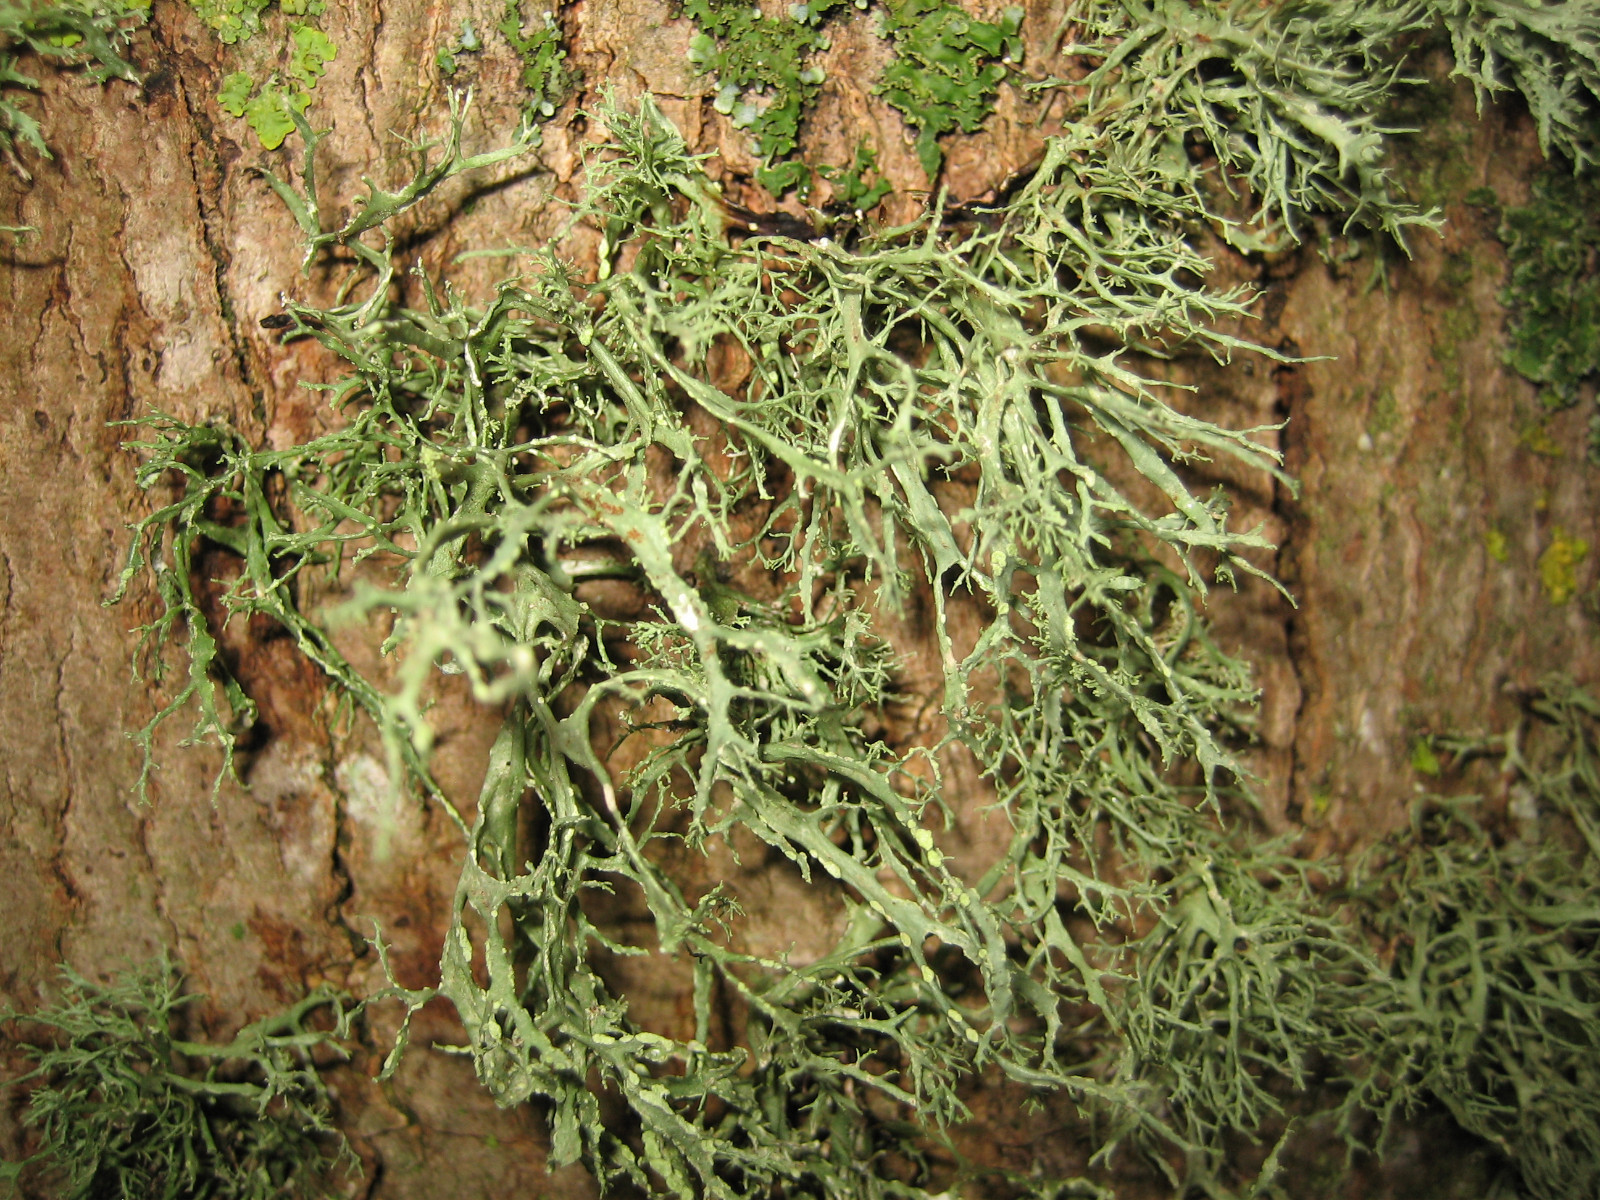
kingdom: Fungi
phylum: Ascomycota
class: Lecanoromycetes
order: Lecanorales
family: Ramalinaceae
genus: Ramalina
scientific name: Ramalina farinacea
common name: melet grenlav
